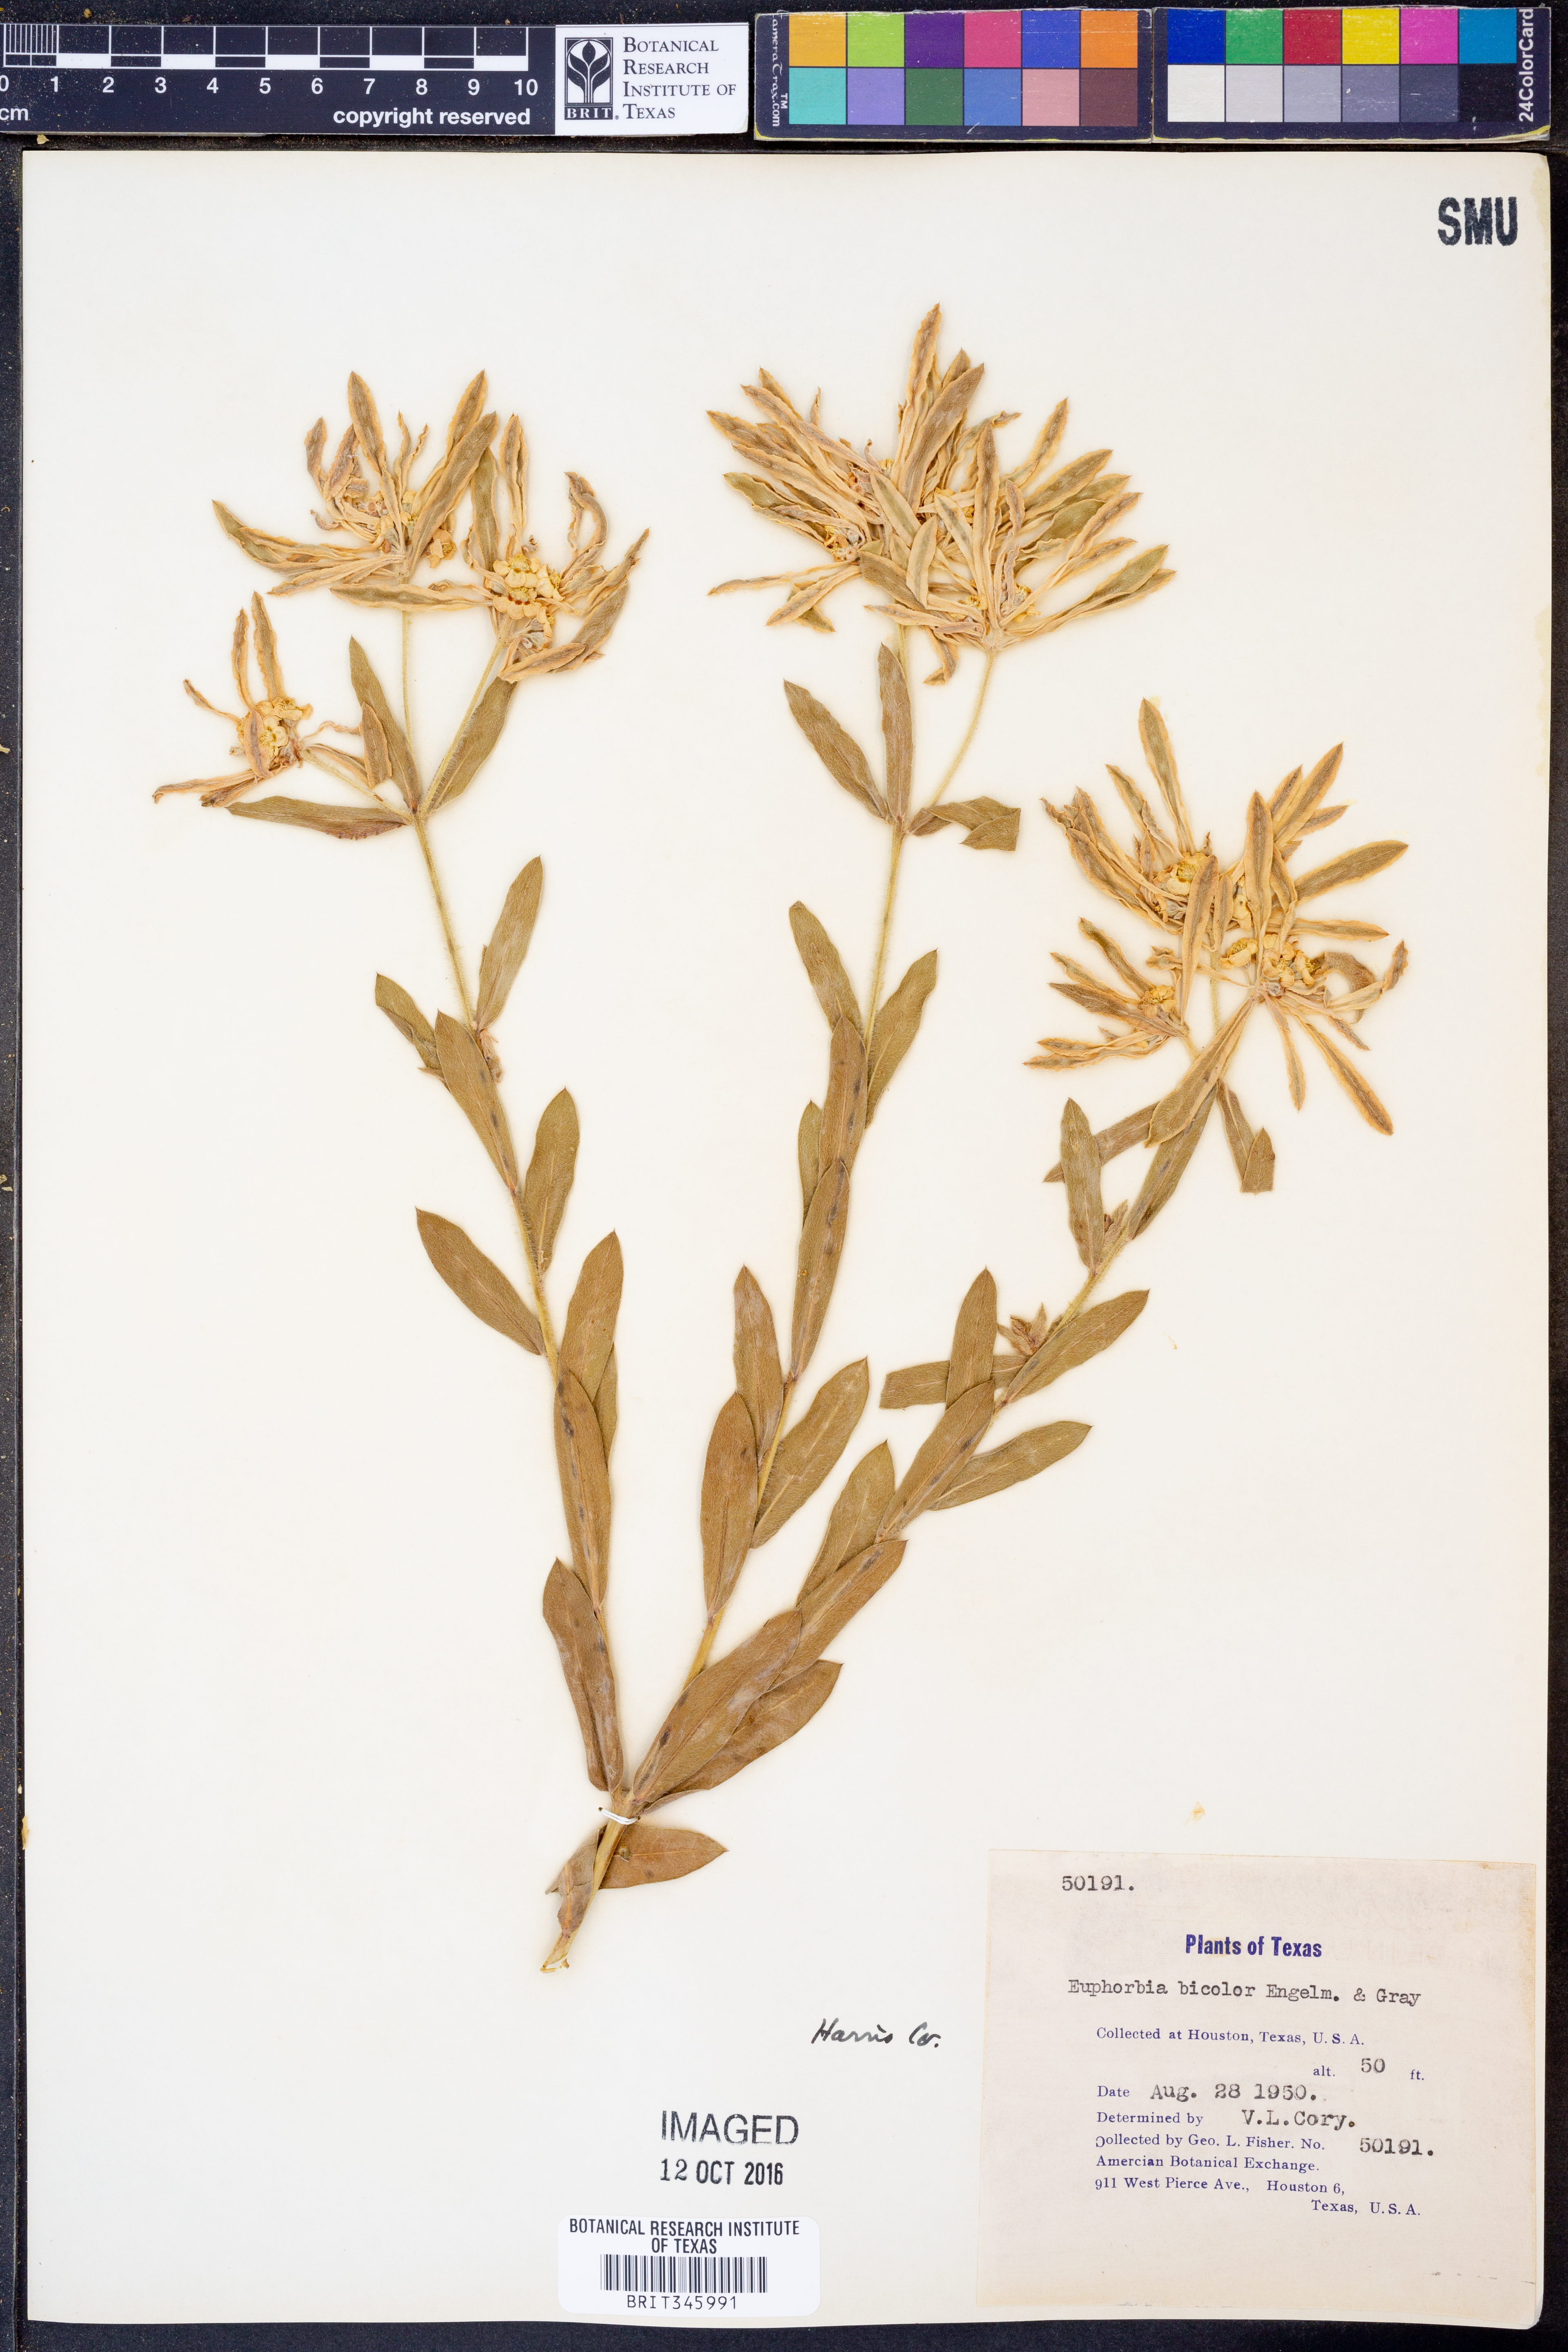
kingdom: Plantae
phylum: Tracheophyta
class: Magnoliopsida
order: Malpighiales
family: Euphorbiaceae
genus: Euphorbia
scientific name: Euphorbia bicolor
